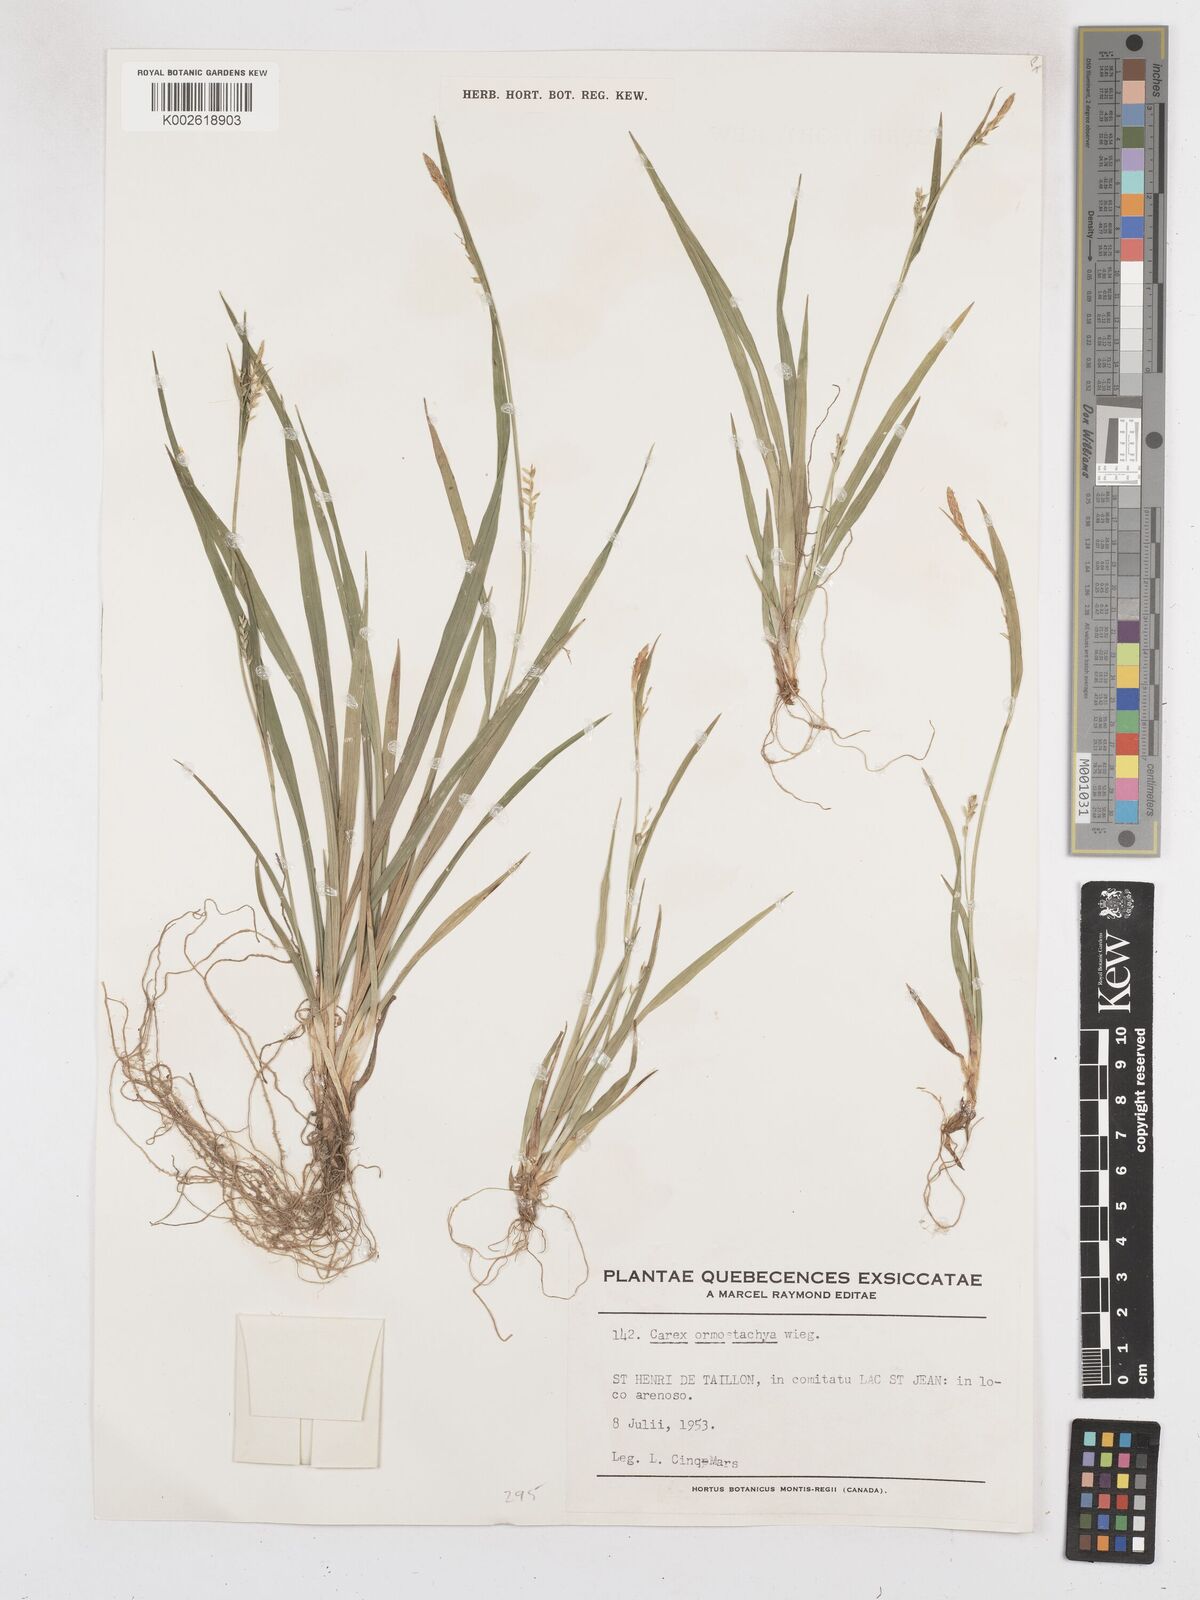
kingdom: Plantae
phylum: Tracheophyta
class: Liliopsida
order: Poales
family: Cyperaceae
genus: Carex
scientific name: Carex ormostachya
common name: Necklace spike sedge
